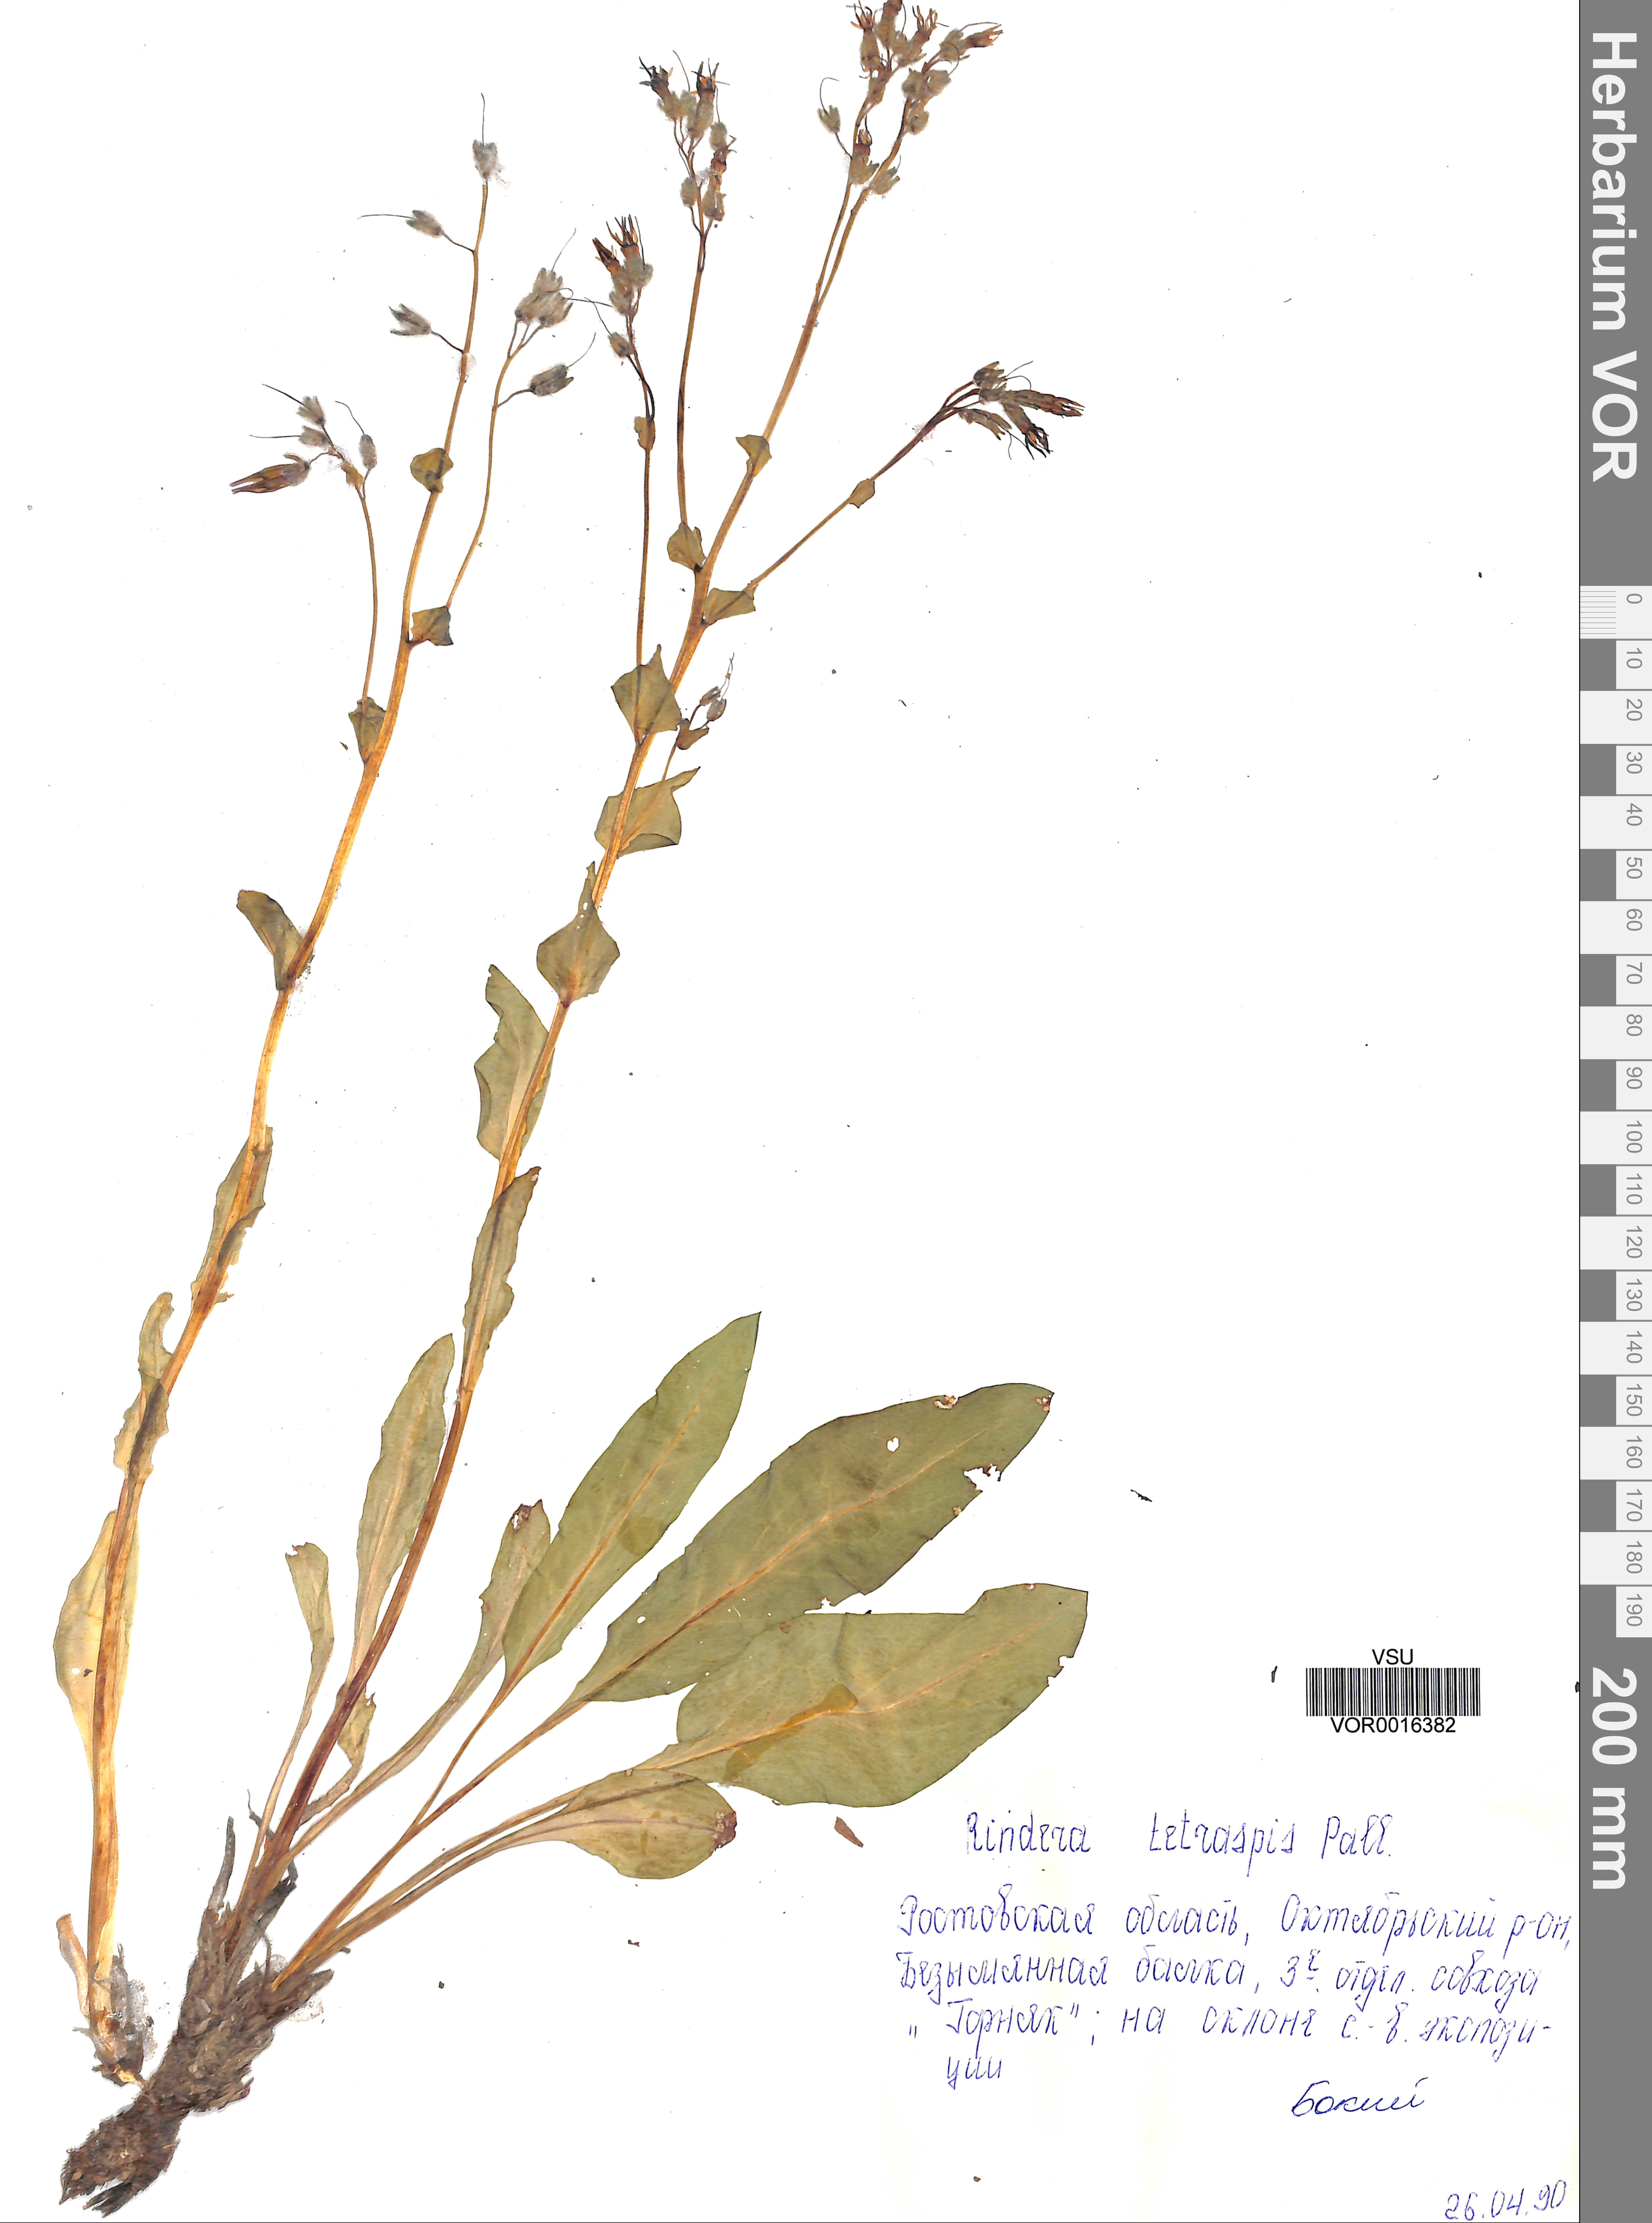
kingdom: Plantae
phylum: Tracheophyta
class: Magnoliopsida
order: Boraginales
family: Boraginaceae
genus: Rindera
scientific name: Rindera tetraspis
